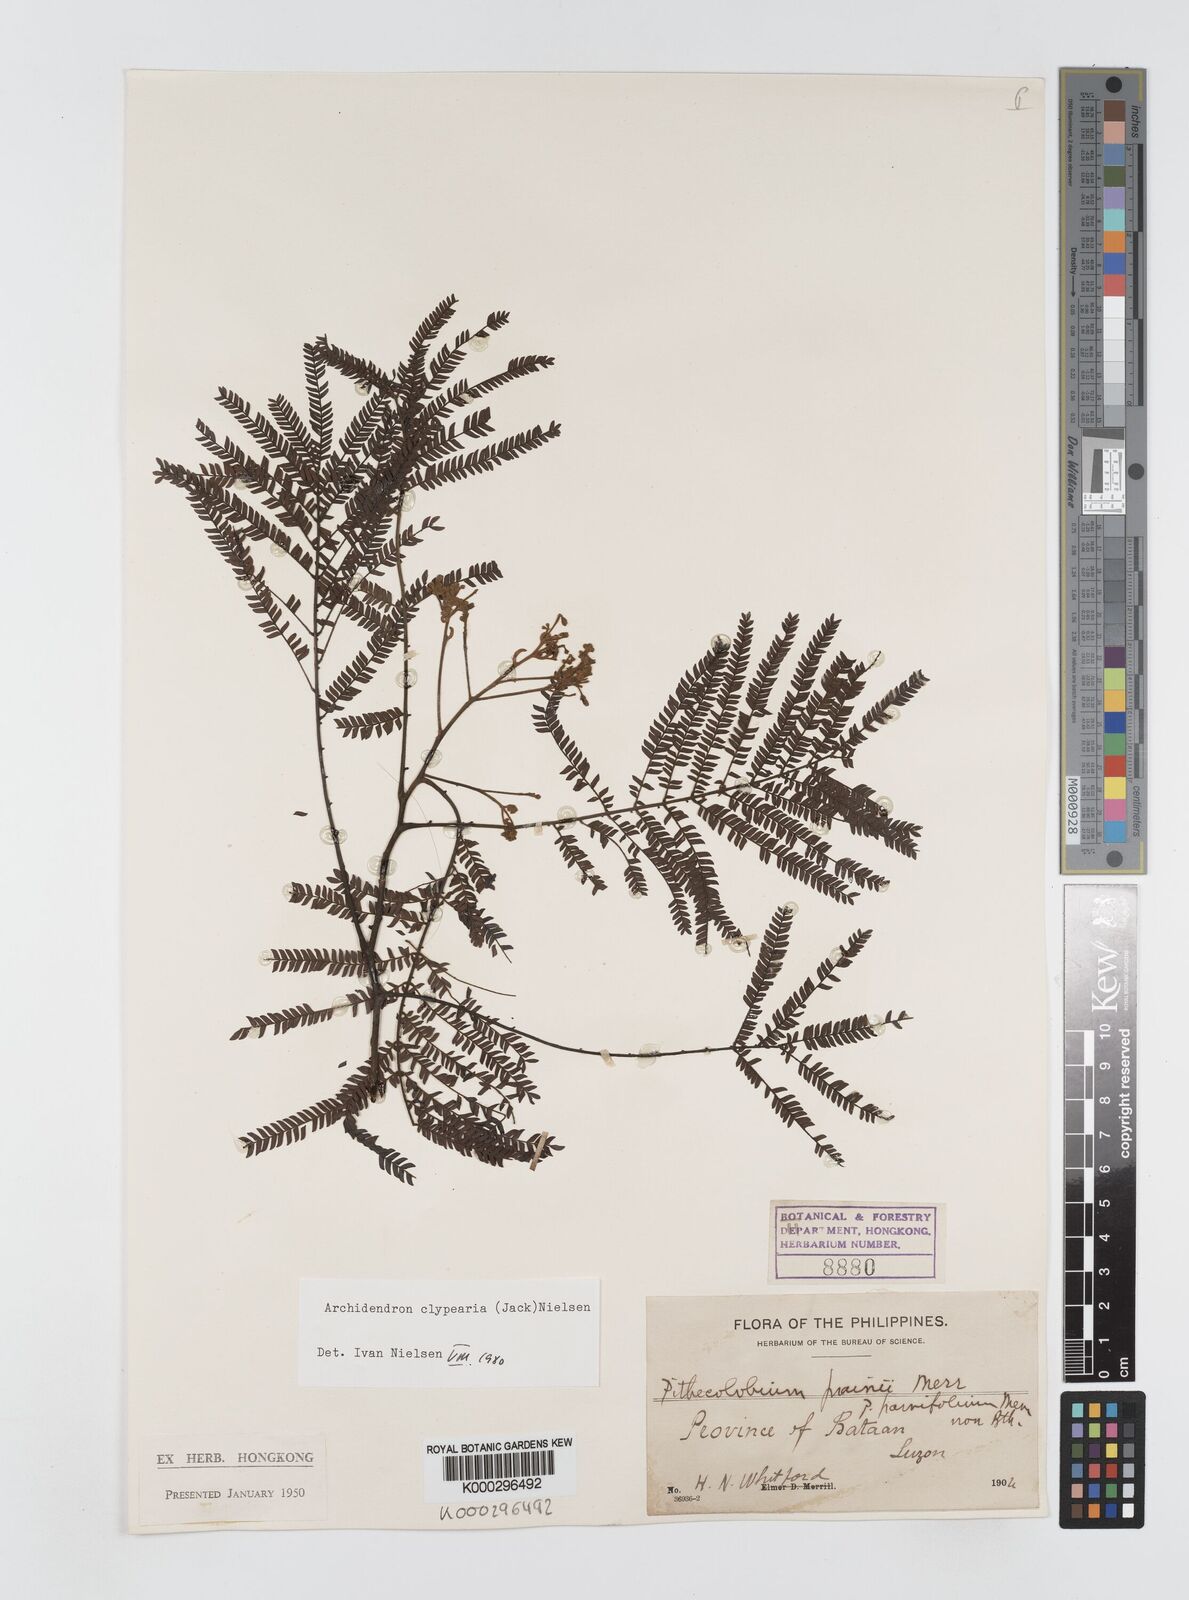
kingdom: Plantae
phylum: Tracheophyta
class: Magnoliopsida
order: Fabales
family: Fabaceae
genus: Archidendron
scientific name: Archidendron clypearia
